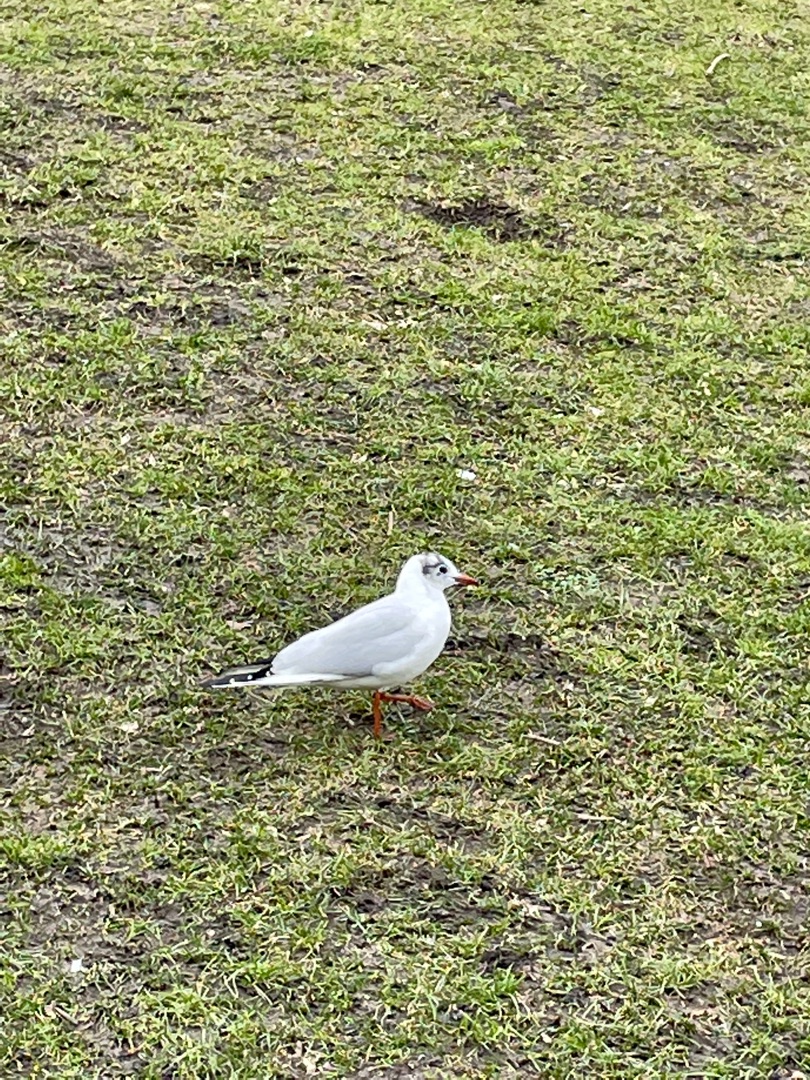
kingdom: Animalia
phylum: Chordata
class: Aves
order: Charadriiformes
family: Laridae
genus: Chroicocephalus
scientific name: Chroicocephalus ridibundus
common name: Hættemåge
